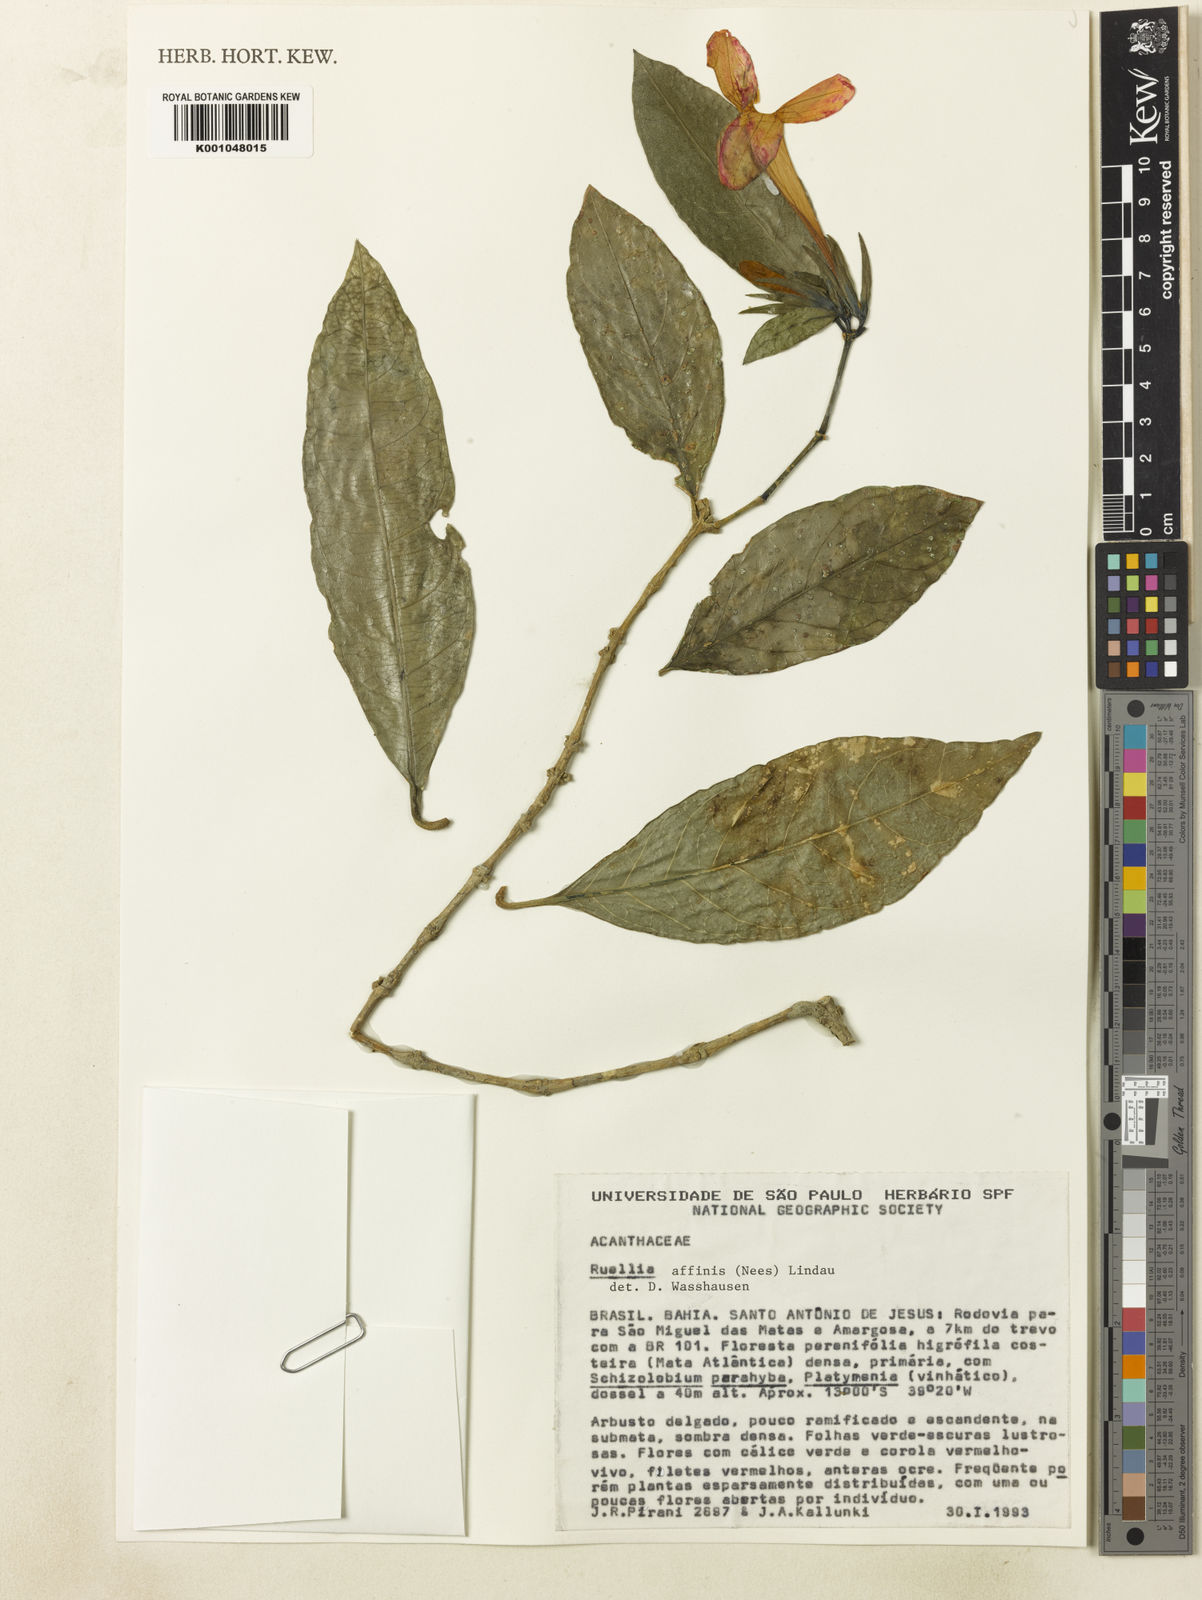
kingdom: Plantae
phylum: Tracheophyta
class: Magnoliopsida
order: Lamiales
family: Acanthaceae
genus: Ruellia
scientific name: Ruellia adenocalyx
